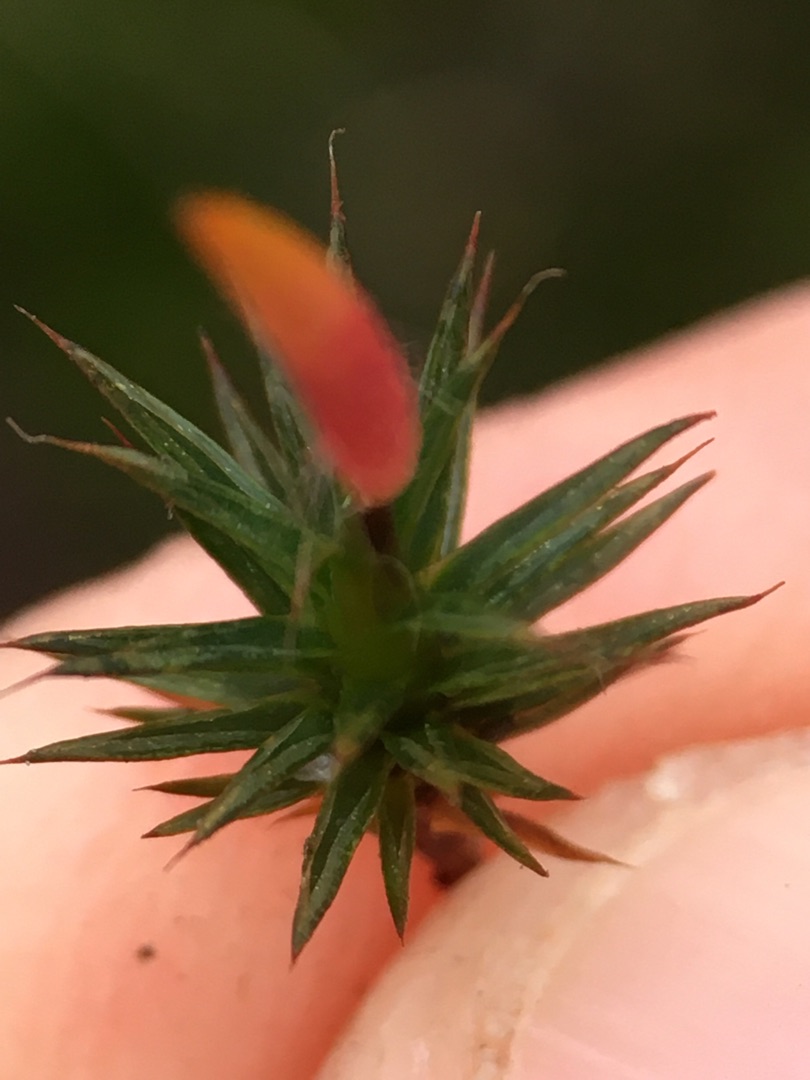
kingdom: Plantae
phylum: Bryophyta
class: Polytrichopsida
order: Polytrichales
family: Polytrichaceae
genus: Polytrichum
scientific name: Polytrichum juniperinum
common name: Ene-jomfruhår
